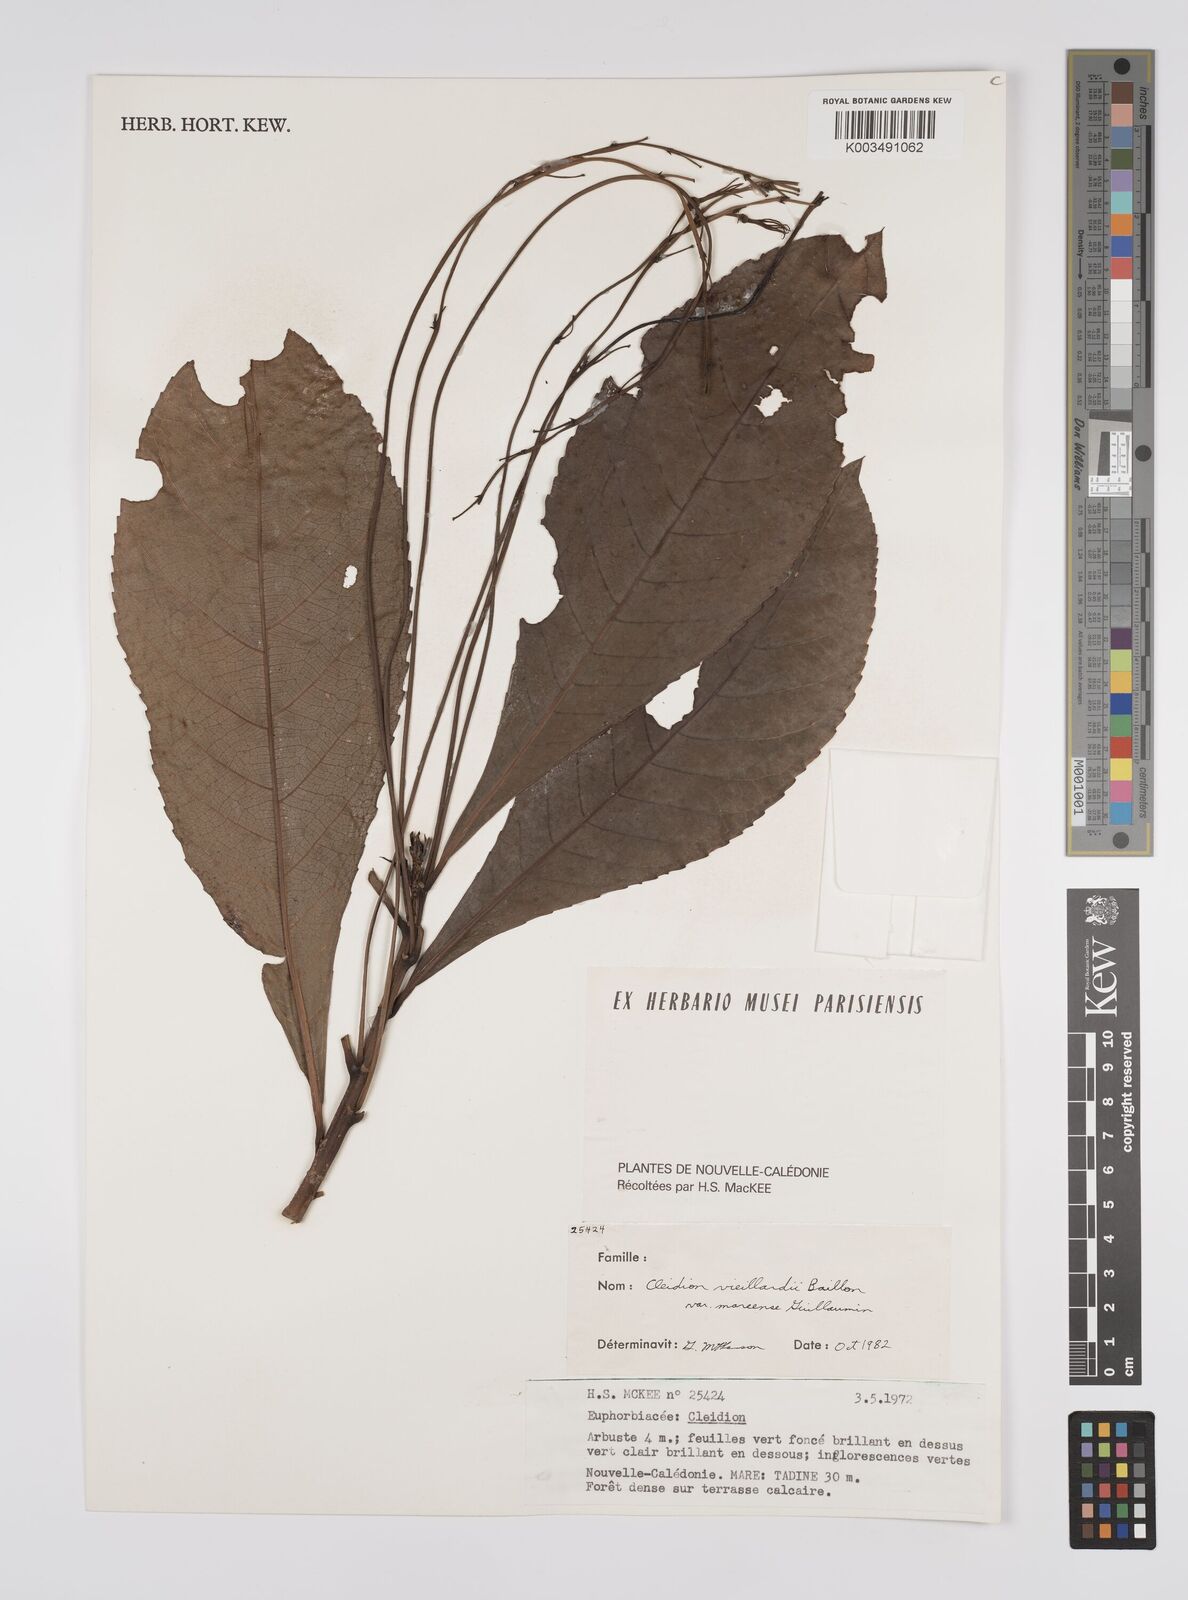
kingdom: Plantae
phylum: Tracheophyta
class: Magnoliopsida
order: Malpighiales
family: Euphorbiaceae
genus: Cleidion
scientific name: Cleidion vieillardii
